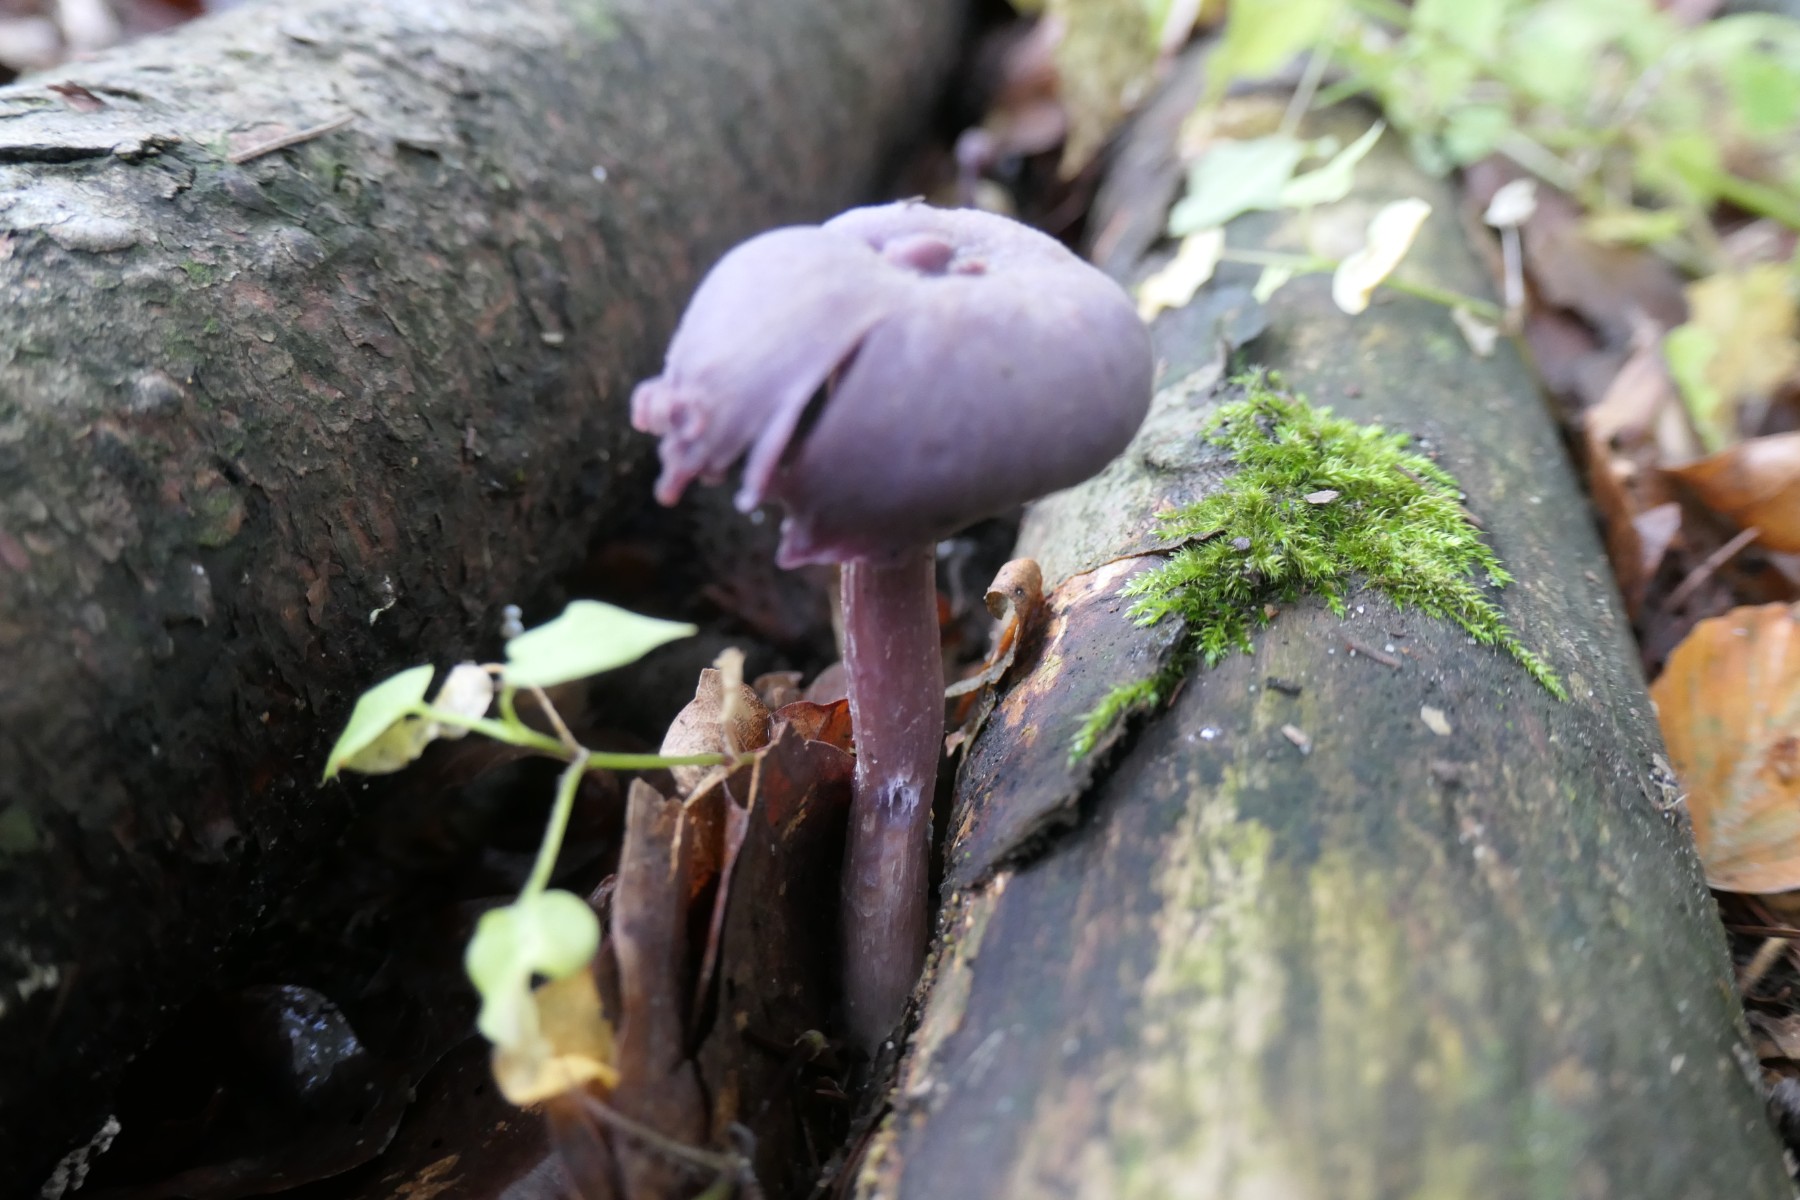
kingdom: Fungi
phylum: Basidiomycota
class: Agaricomycetes
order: Agaricales
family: Hydnangiaceae
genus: Laccaria
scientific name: Laccaria amethystina
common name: violet ametysthat
